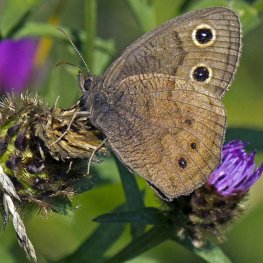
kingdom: Animalia
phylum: Arthropoda
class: Insecta
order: Lepidoptera
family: Nymphalidae
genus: Cercyonis
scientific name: Cercyonis pegala
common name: Common Wood-Nymph
